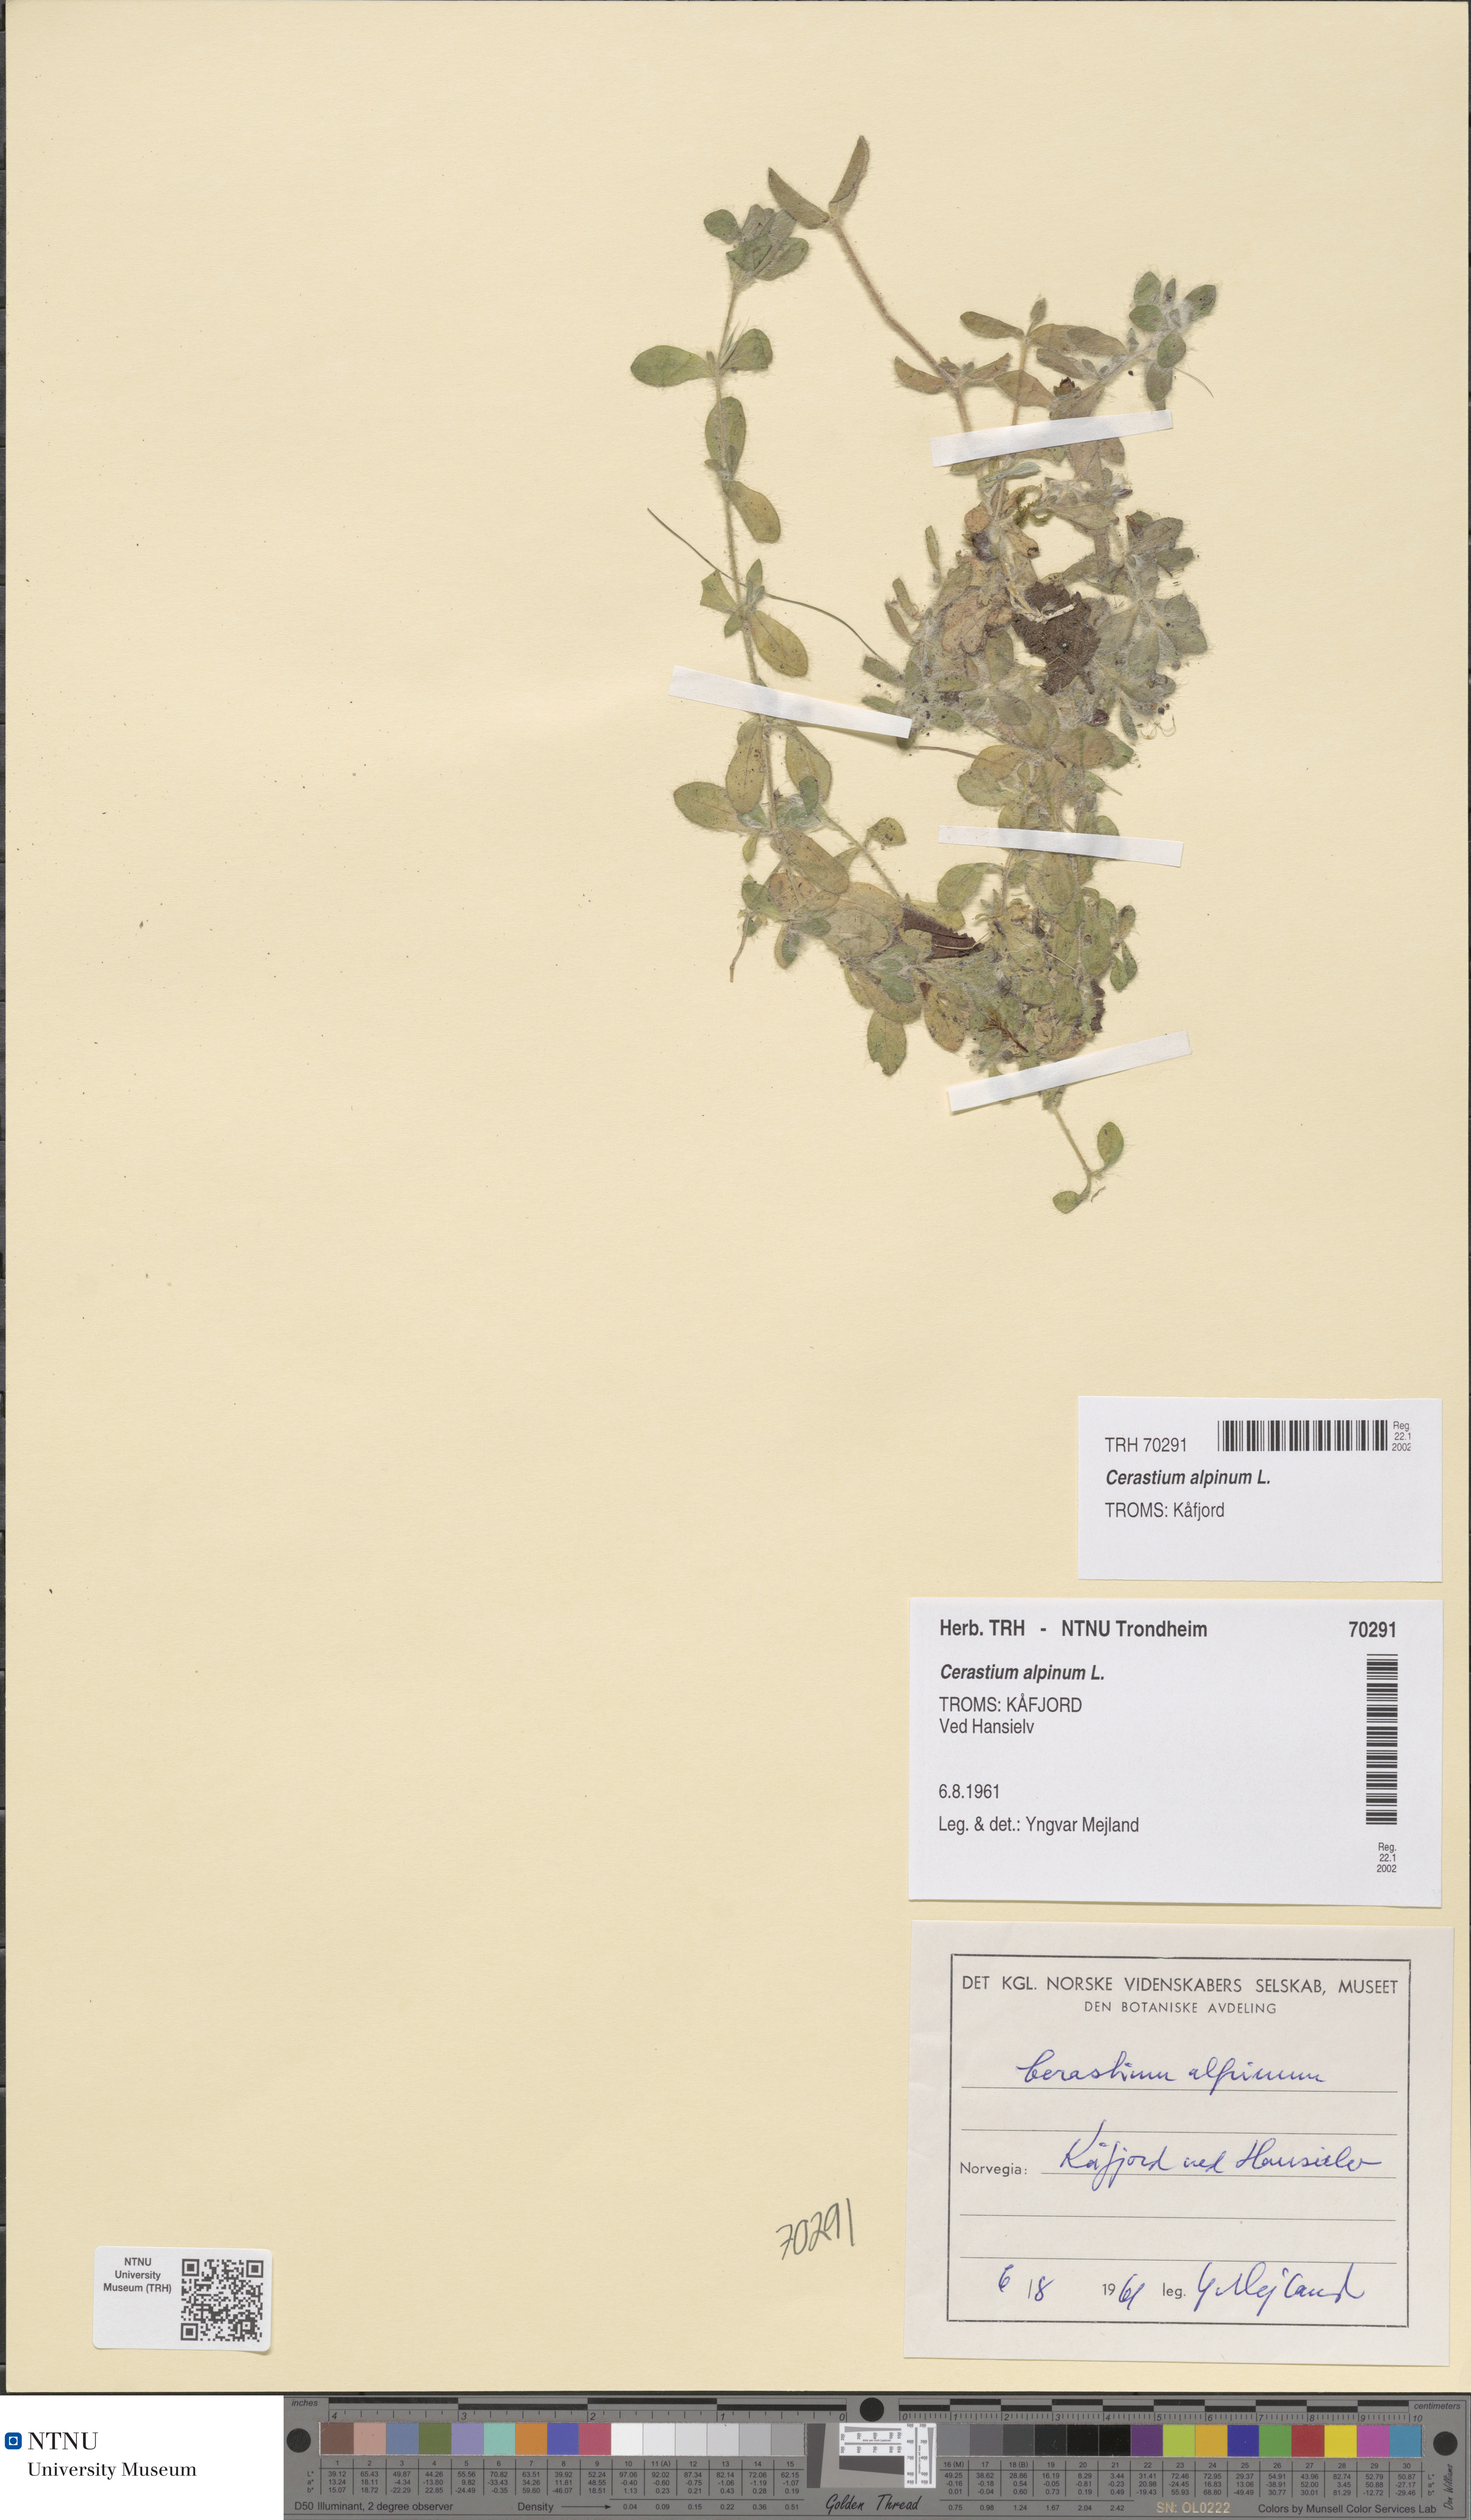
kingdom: Plantae
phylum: Tracheophyta
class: Magnoliopsida
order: Caryophyllales
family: Caryophyllaceae
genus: Cerastium
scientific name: Cerastium alpinum
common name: Alpine mouse-ear
